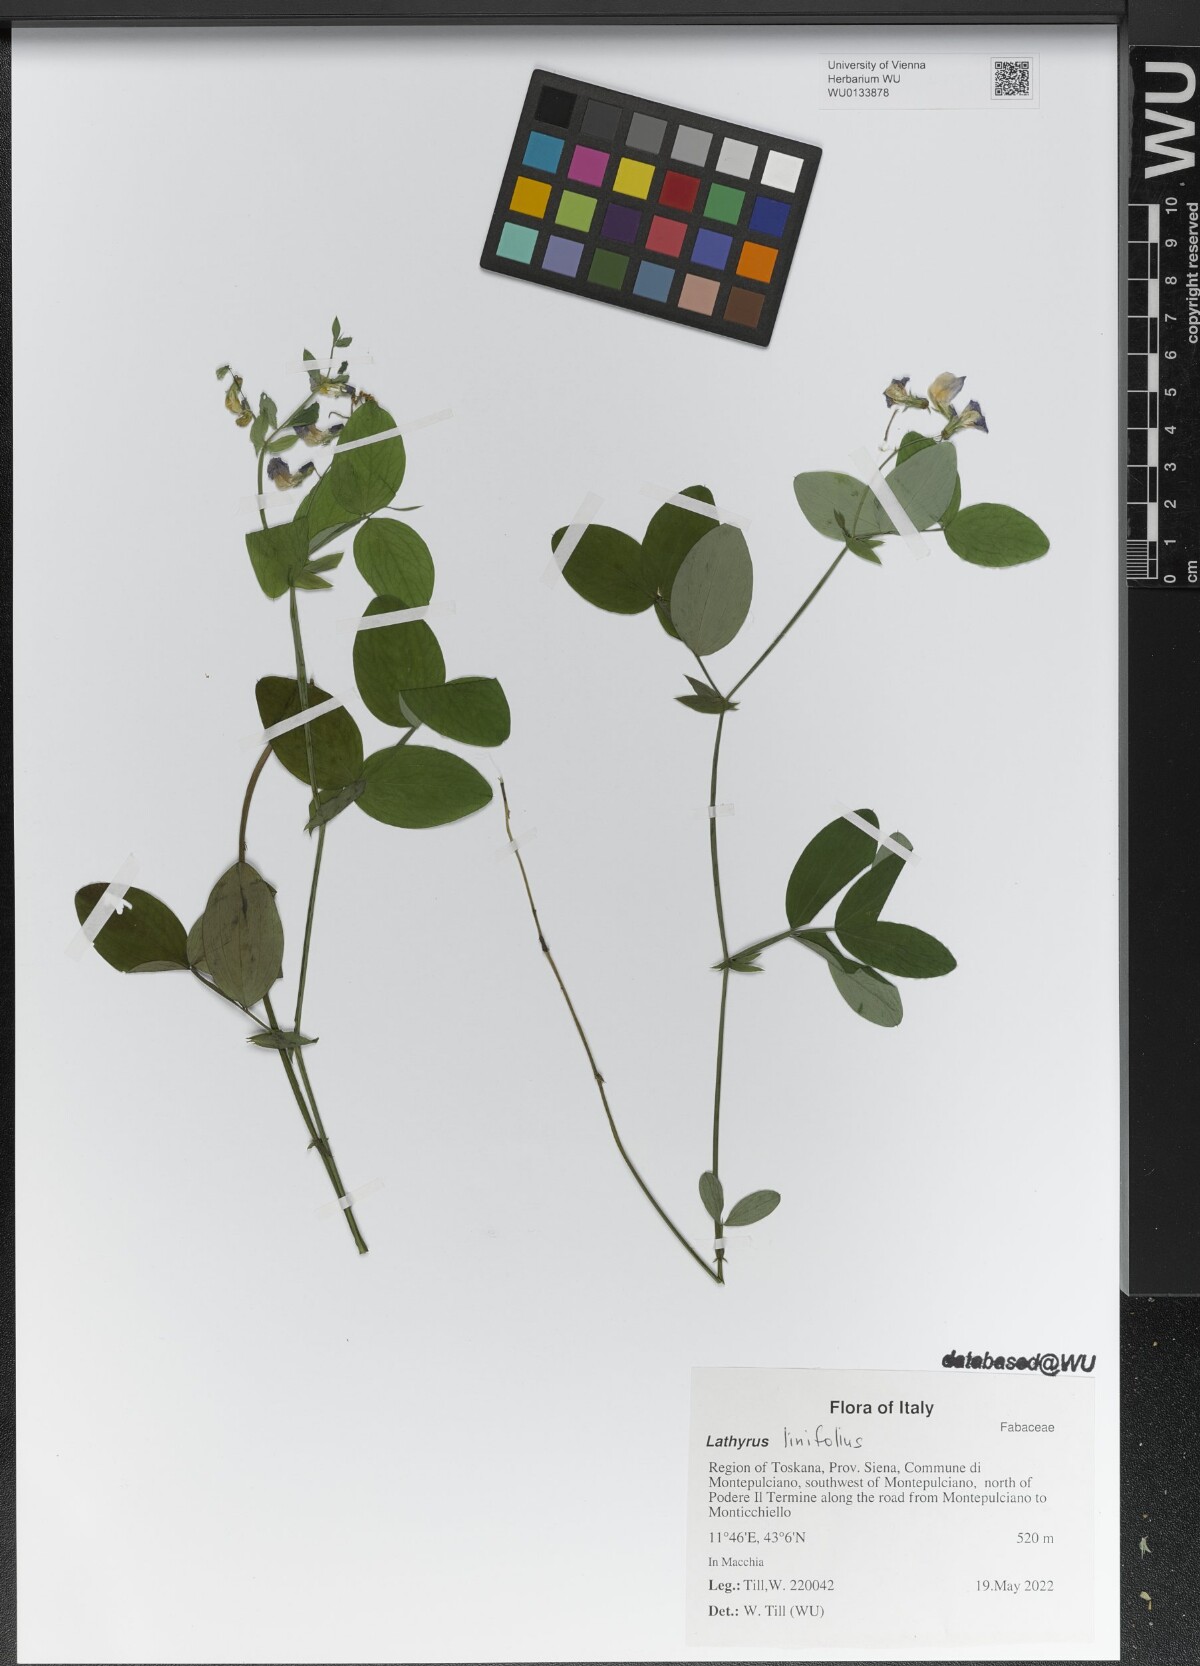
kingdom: Plantae
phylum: Tracheophyta
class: Magnoliopsida
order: Fabales
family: Fabaceae
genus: Lathyrus
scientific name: Lathyrus linifolius
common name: Bitter-vetch
